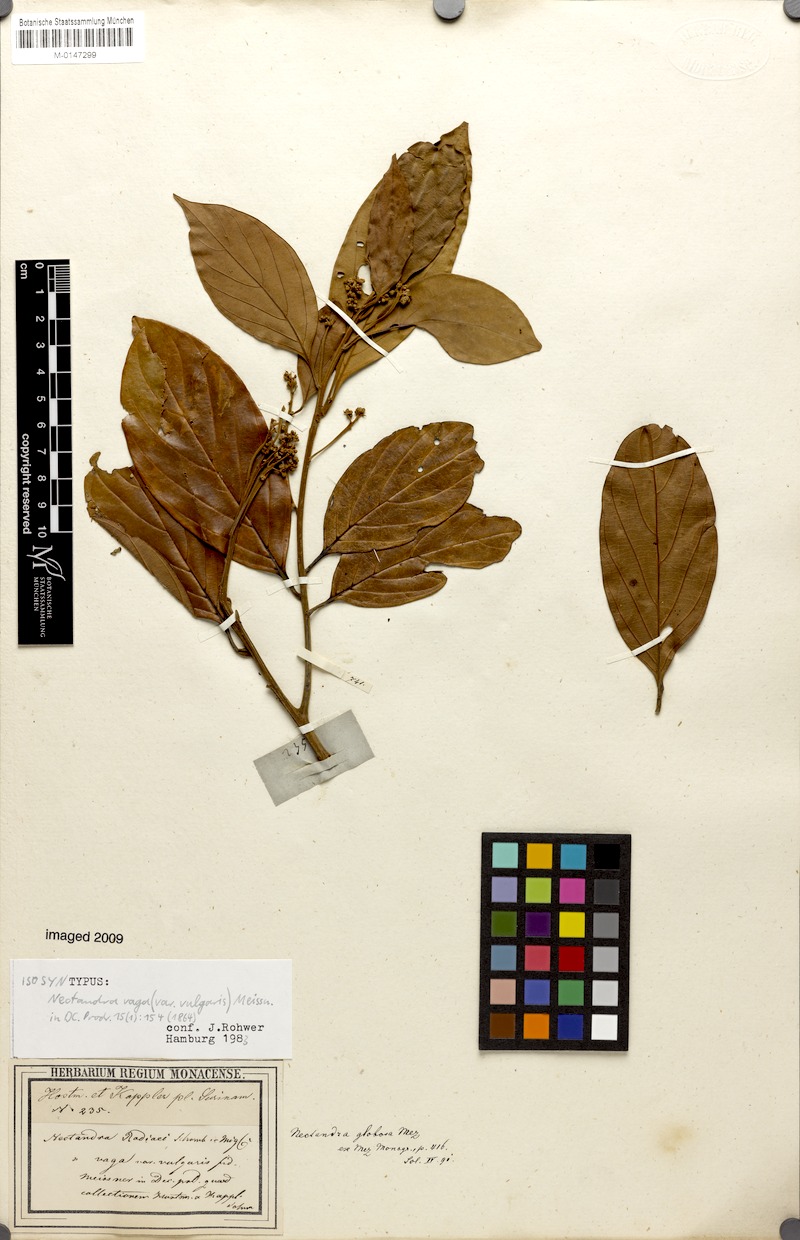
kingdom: Plantae
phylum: Tracheophyta
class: Magnoliopsida
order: Laurales
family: Lauraceae
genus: Nectandra
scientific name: Nectandra globosa
